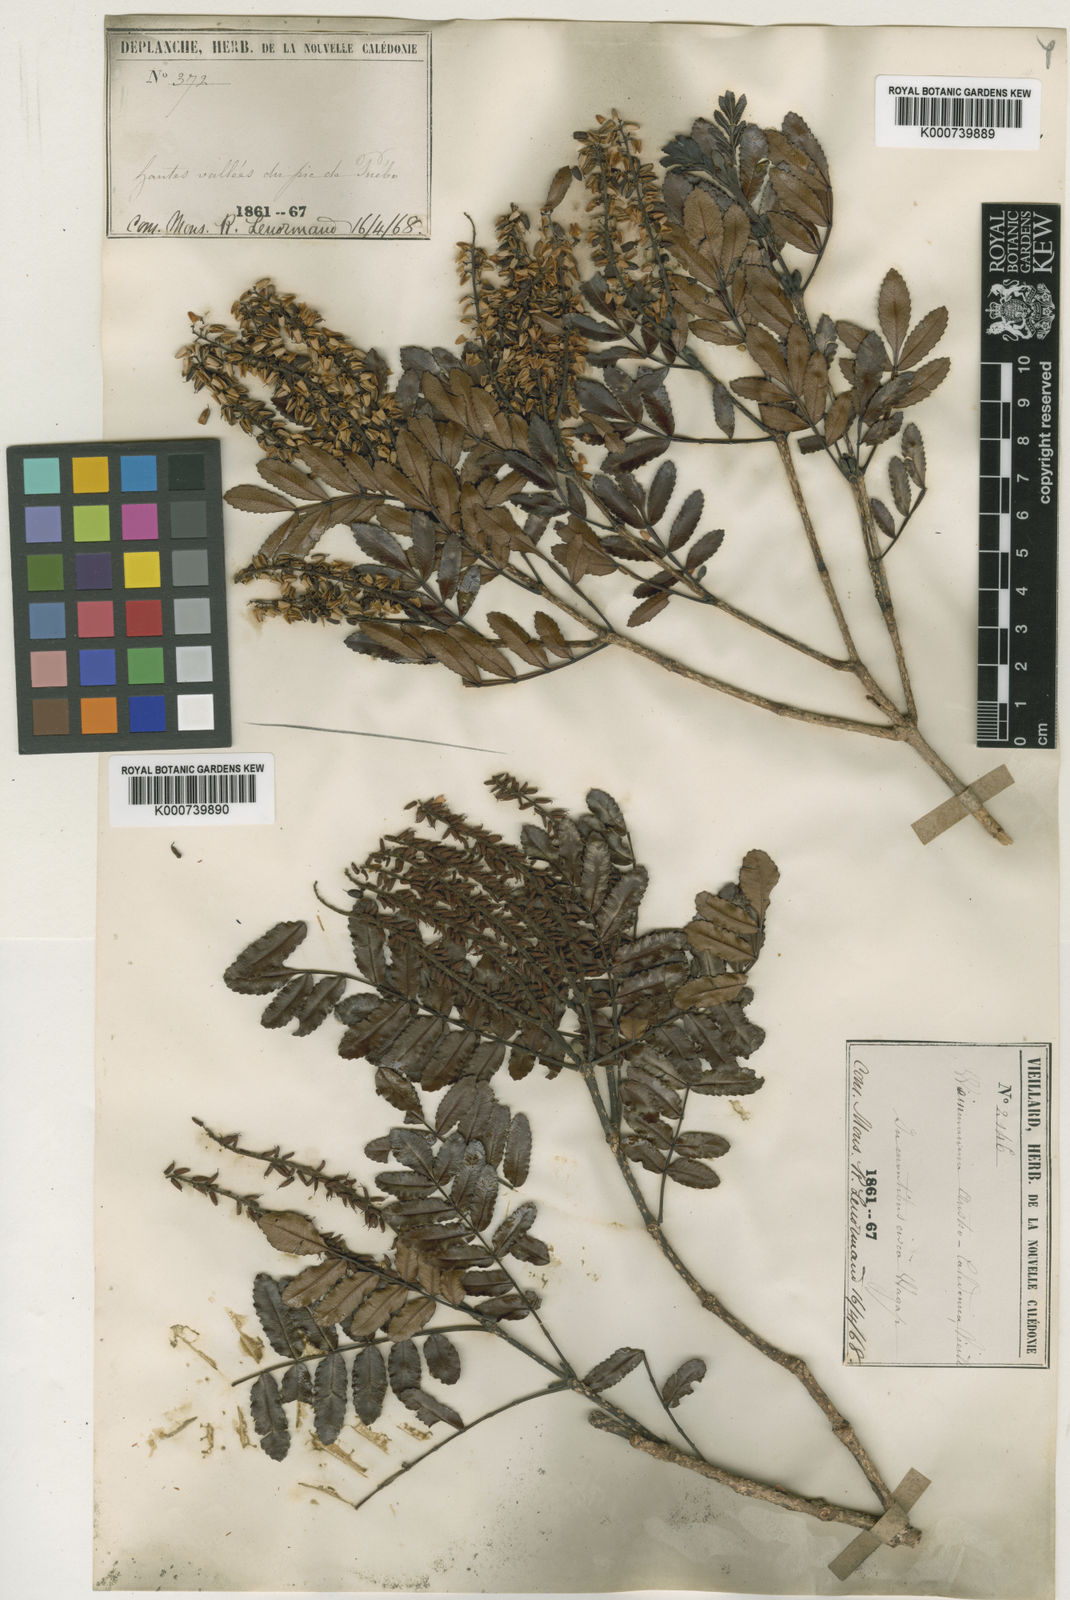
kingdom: Plantae
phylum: Tracheophyta
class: Magnoliopsida
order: Oxalidales
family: Cunoniaceae
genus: Cunonia
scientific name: Cunonia austrocaledonica
